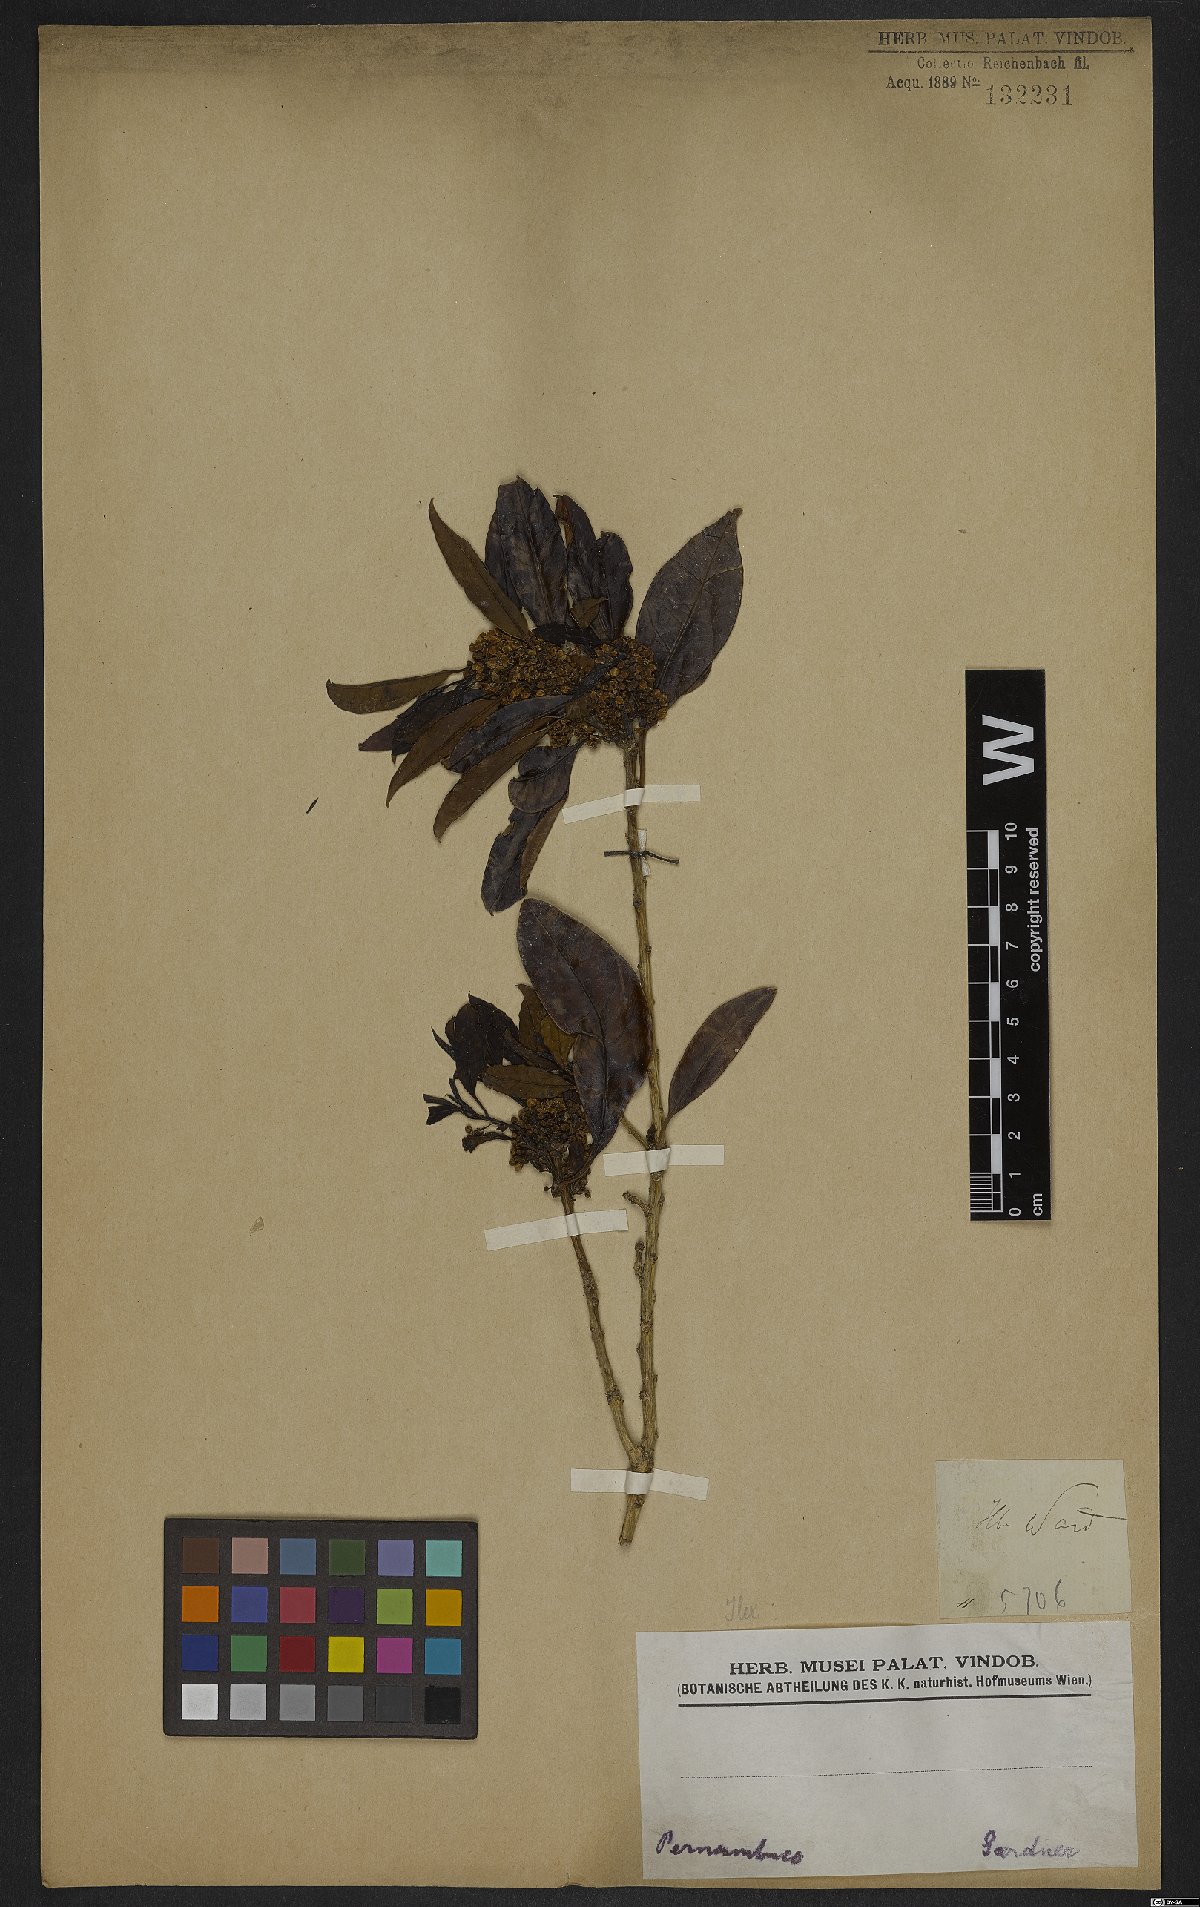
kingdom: Plantae
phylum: Tracheophyta
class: Magnoliopsida
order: Aquifoliales
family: Aquifoliaceae
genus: Ilex
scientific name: Ilex
